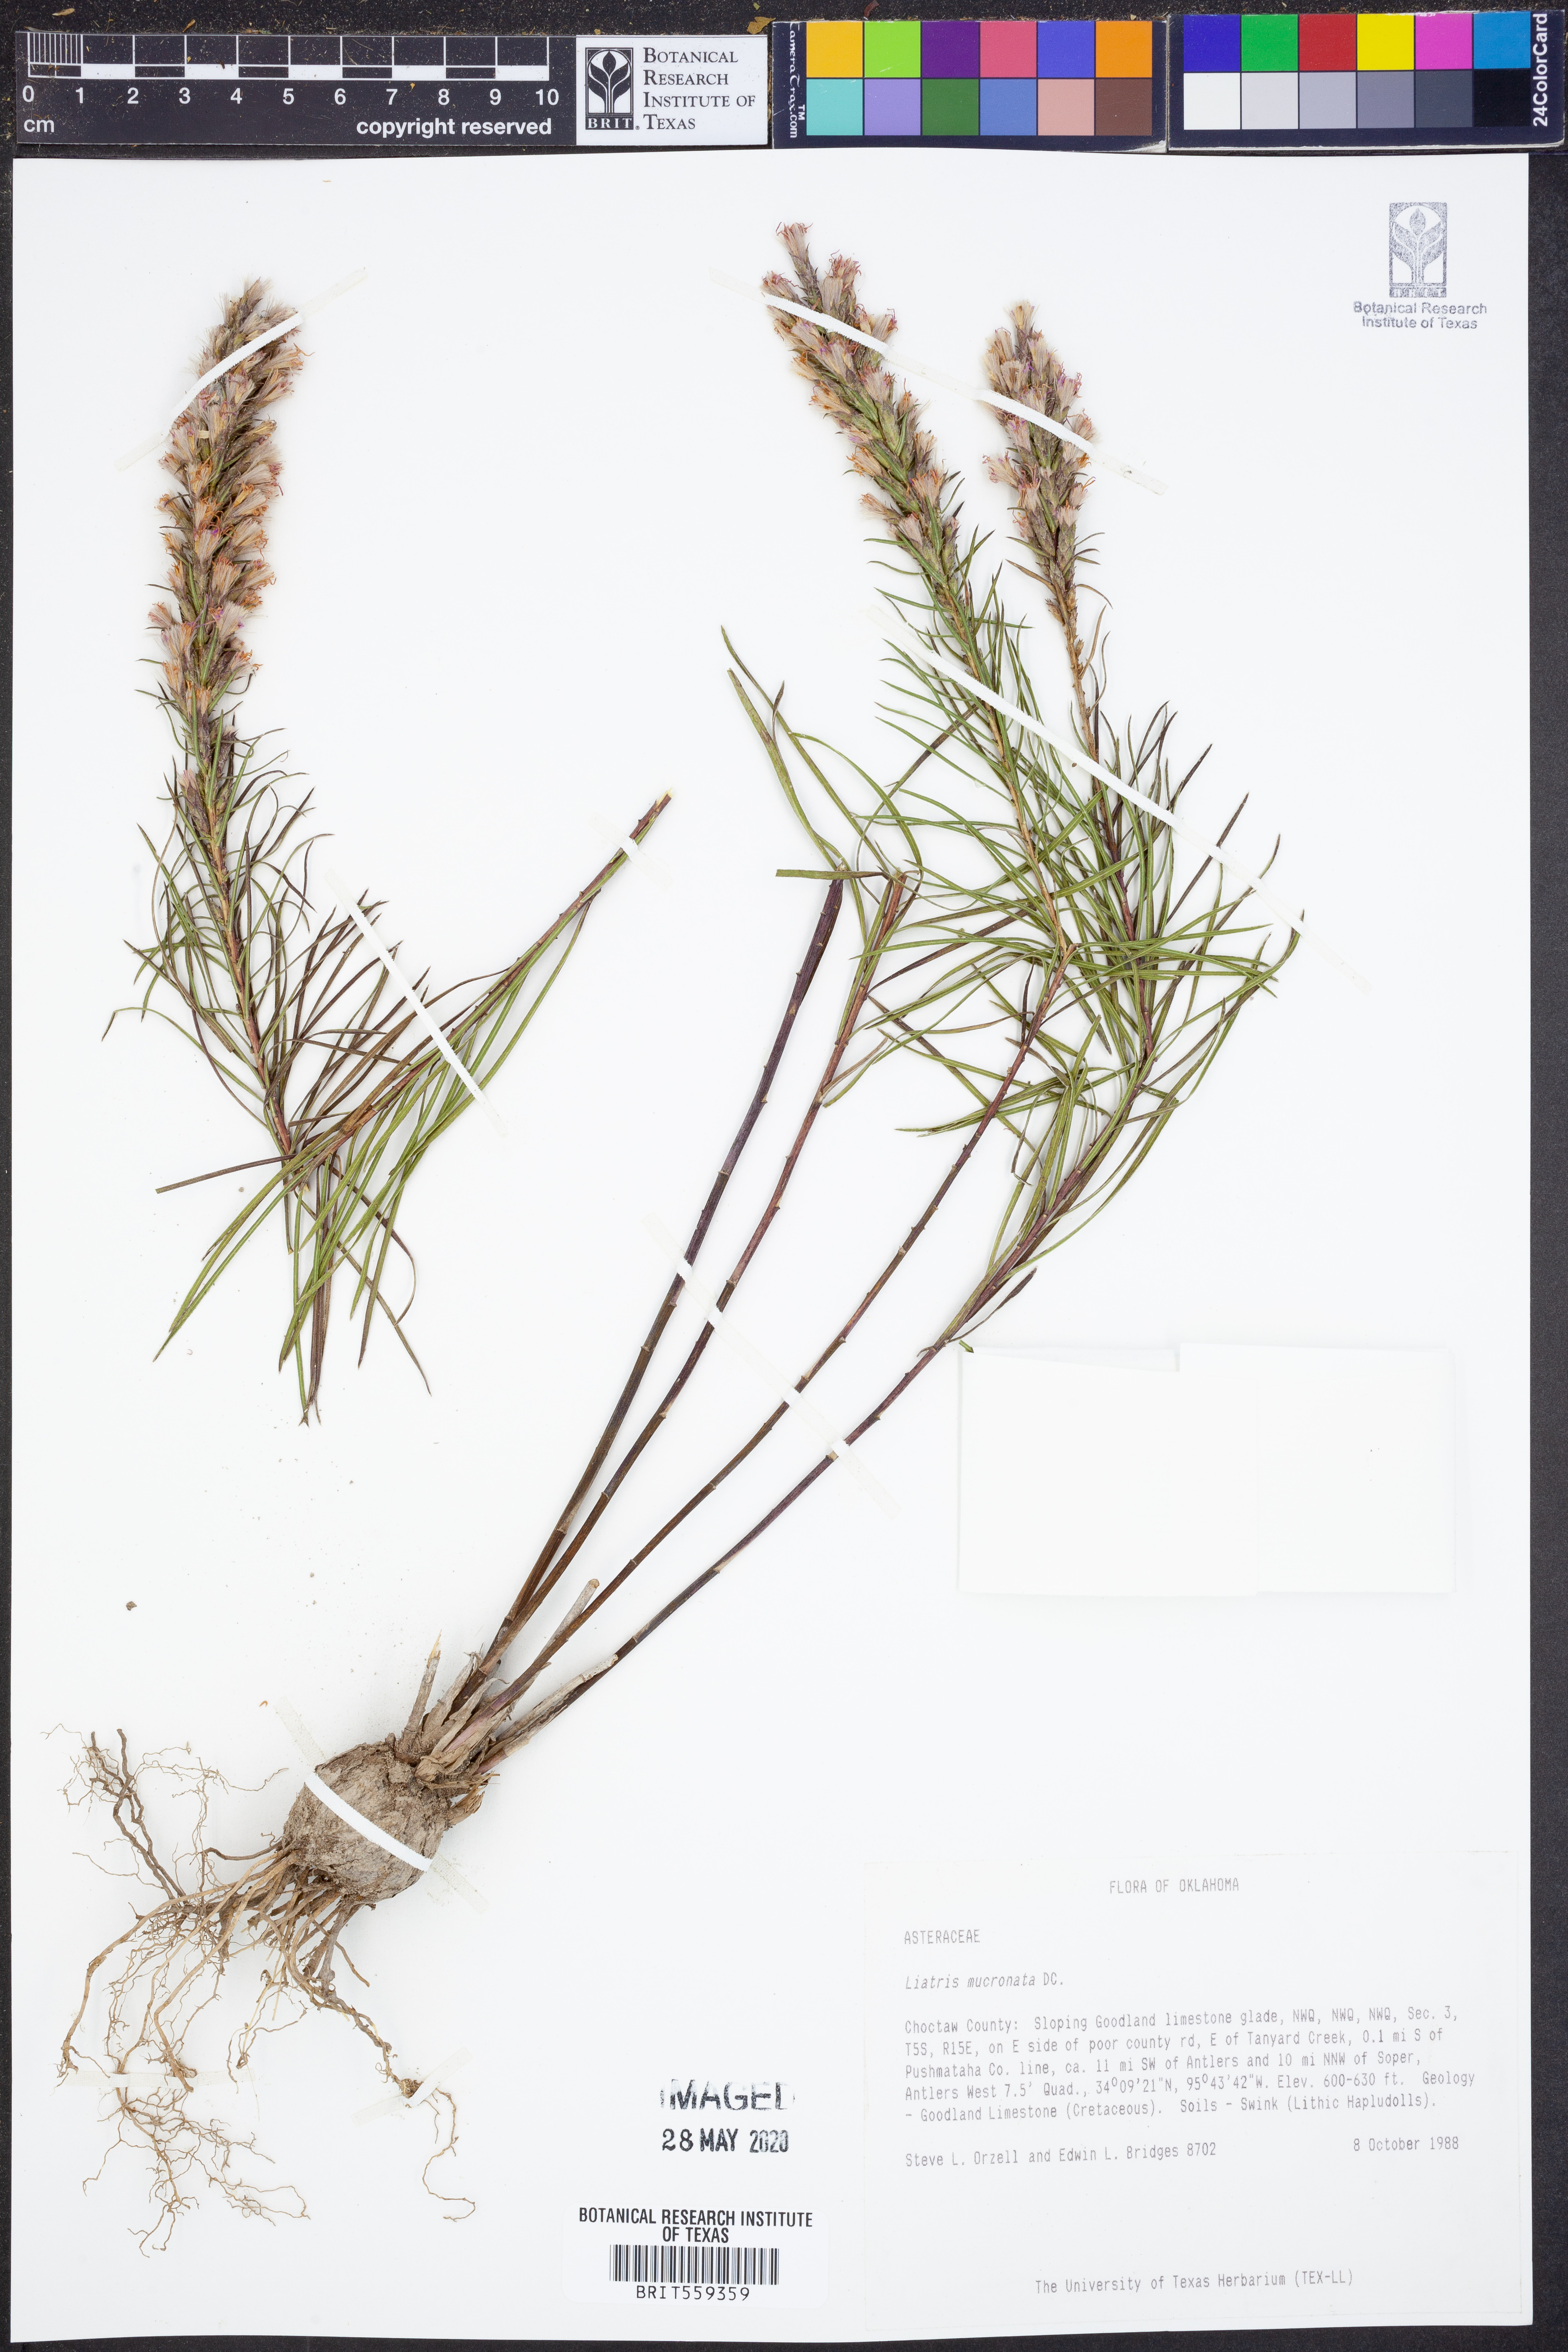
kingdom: Plantae
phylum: Tracheophyta
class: Magnoliopsida
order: Asterales
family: Asteraceae
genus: Liatris
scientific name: Liatris mucronata
